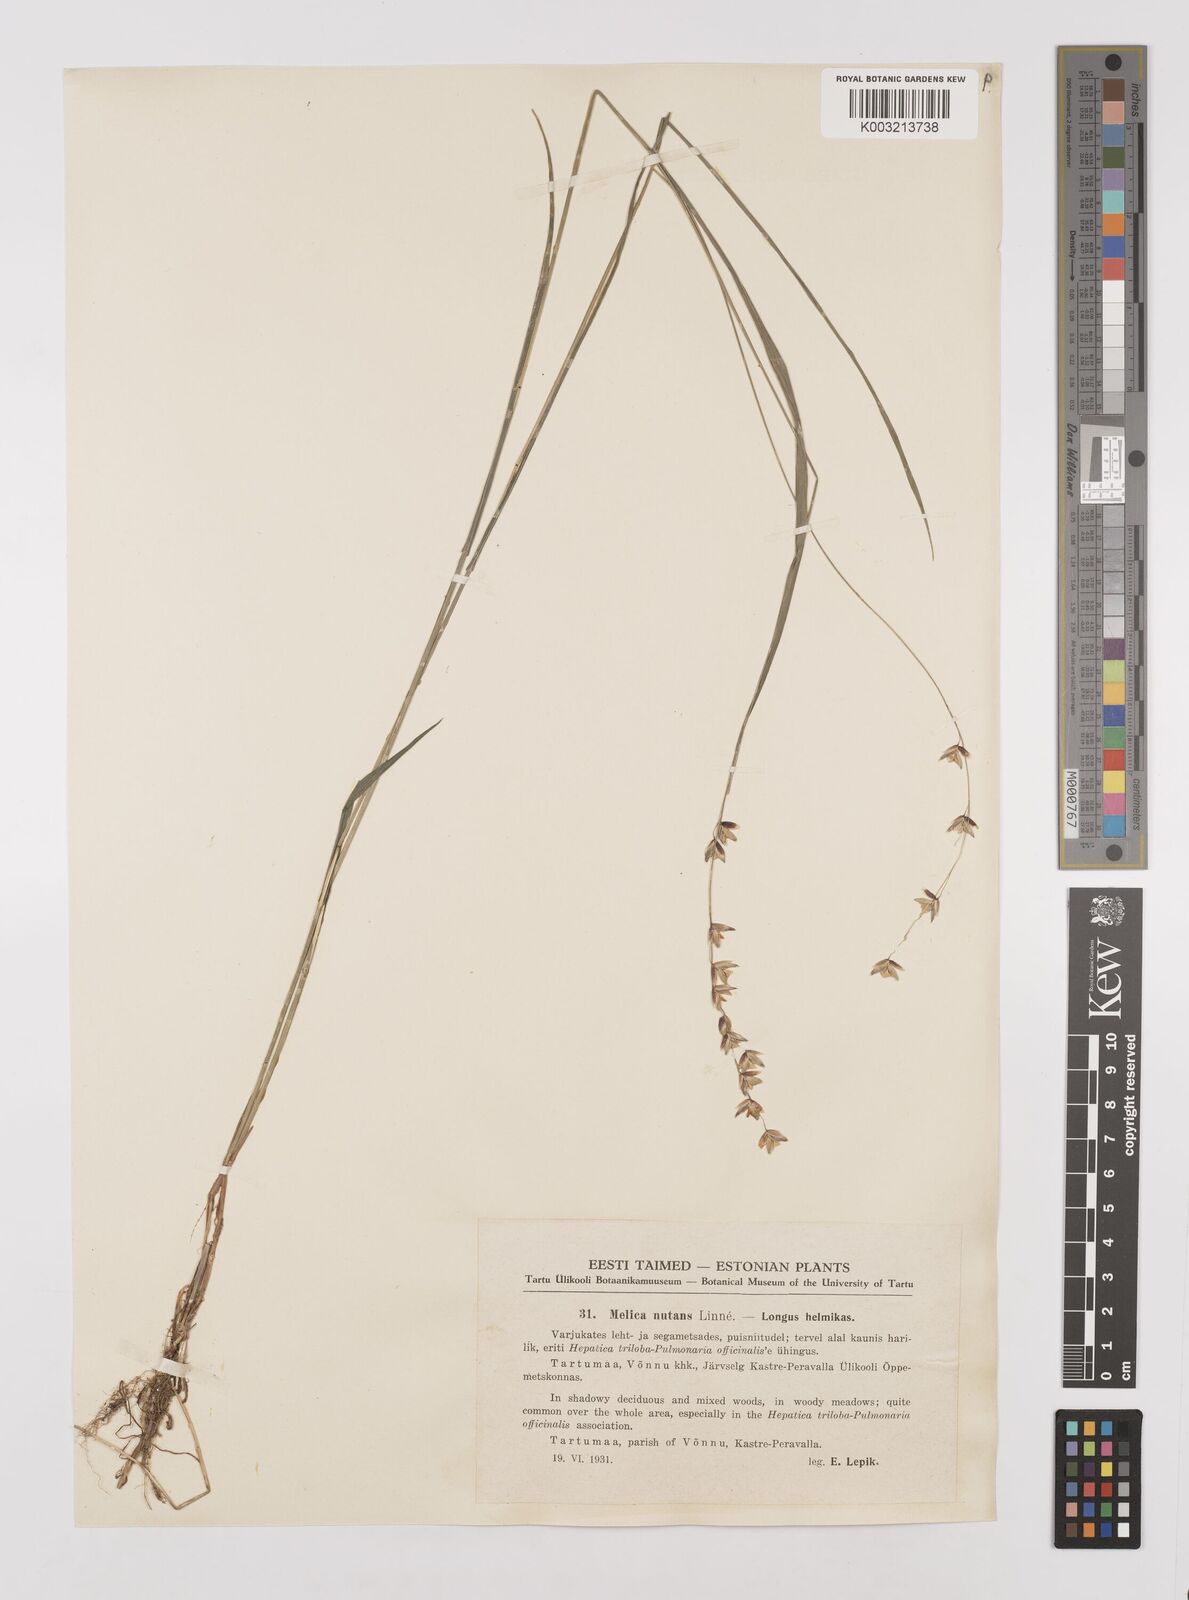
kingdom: Plantae
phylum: Tracheophyta
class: Liliopsida
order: Poales
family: Poaceae
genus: Melica
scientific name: Melica
